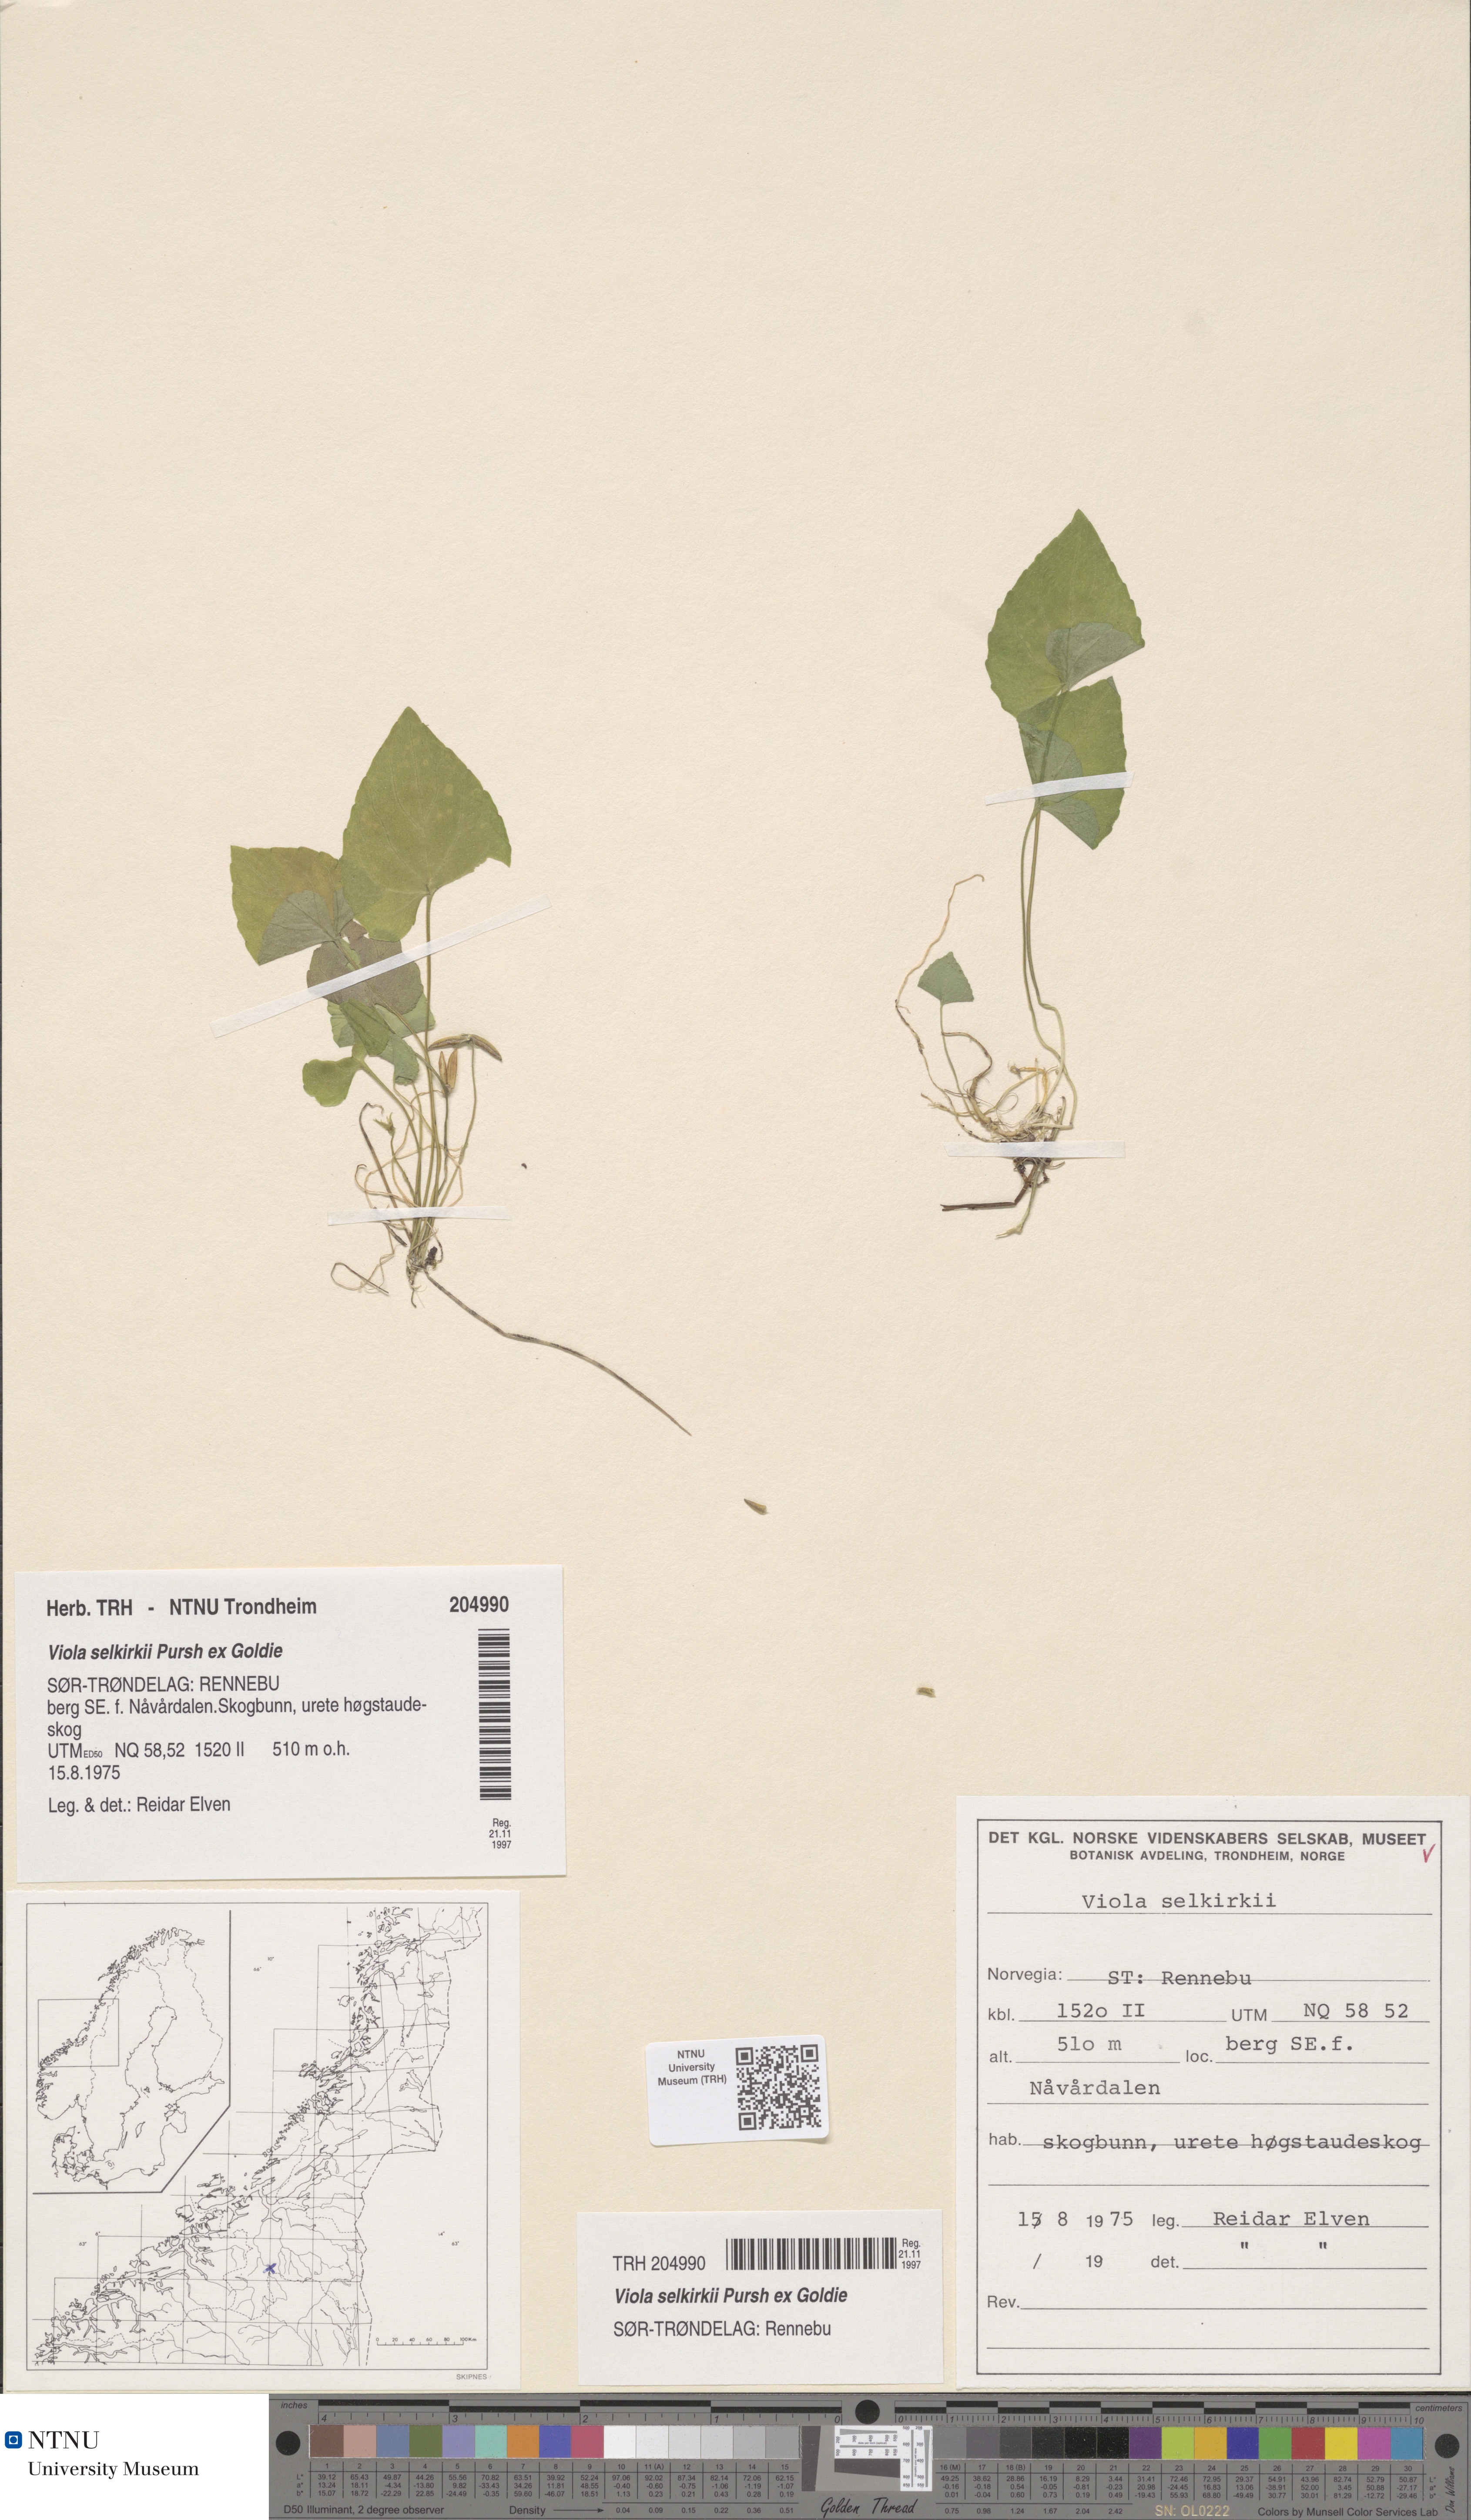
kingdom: Plantae
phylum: Tracheophyta
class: Magnoliopsida
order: Malpighiales
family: Violaceae
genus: Viola
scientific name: Viola selkirkii
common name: Selkirk's violet
